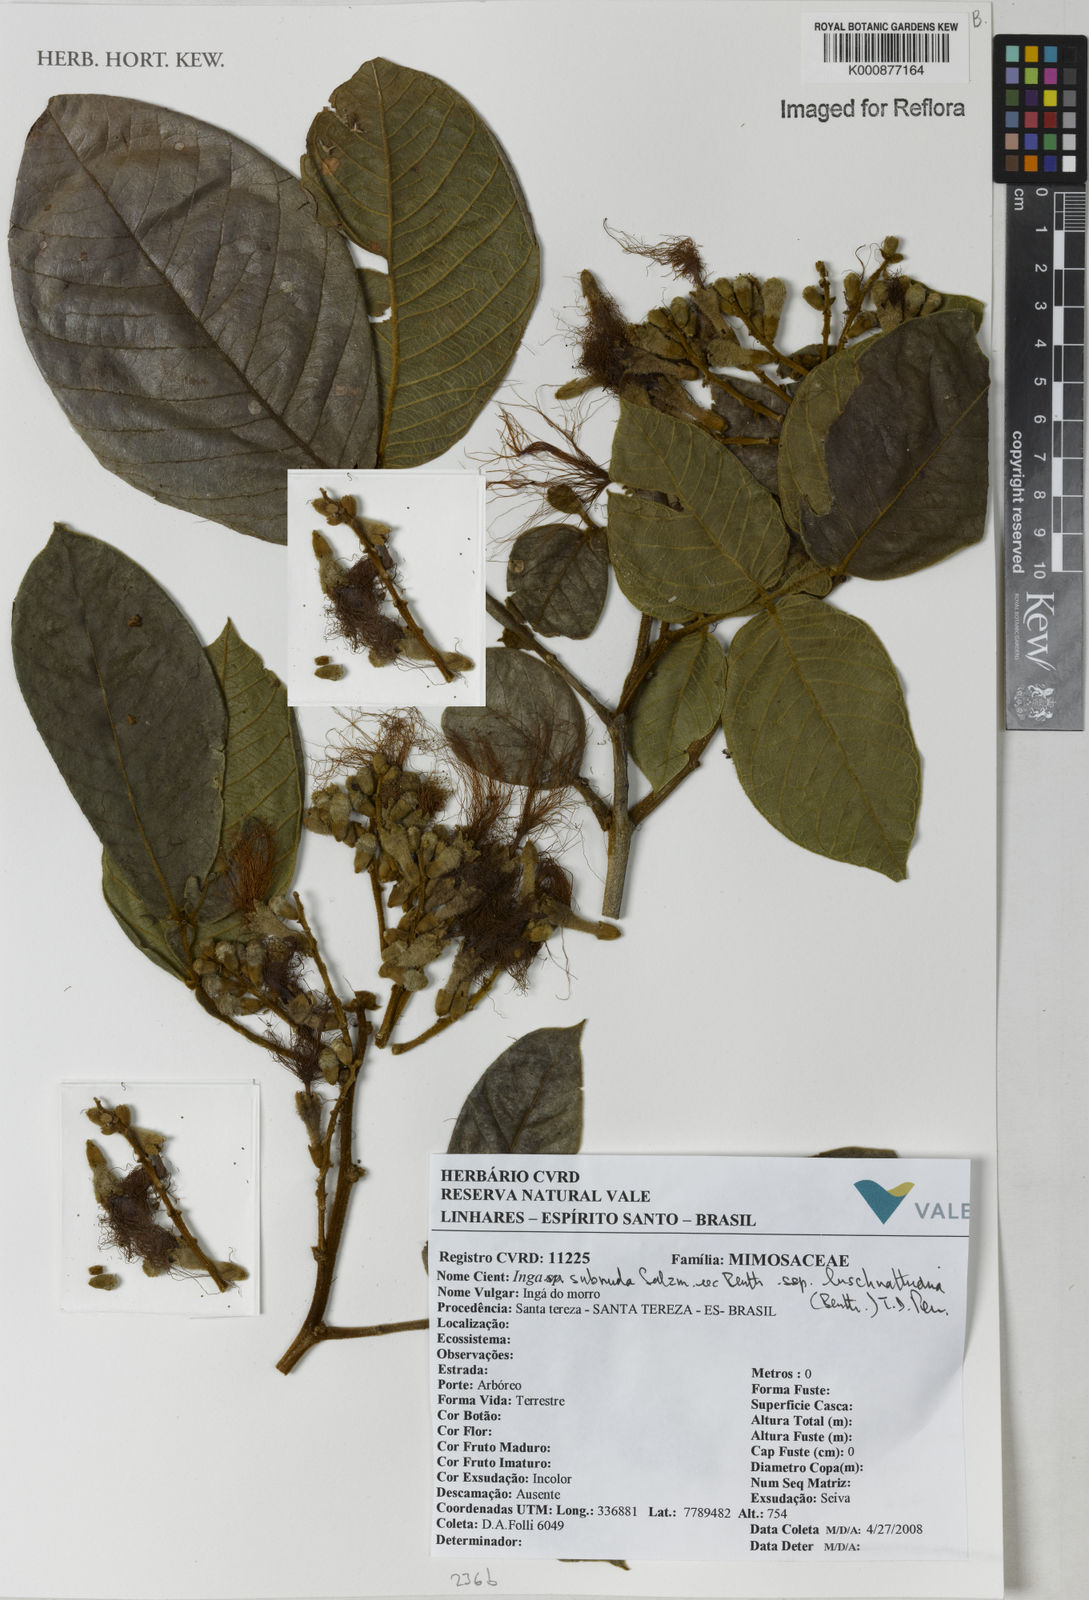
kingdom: Plantae
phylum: Tracheophyta
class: Magnoliopsida
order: Fabales
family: Fabaceae
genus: Inga
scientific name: Inga subnuda
